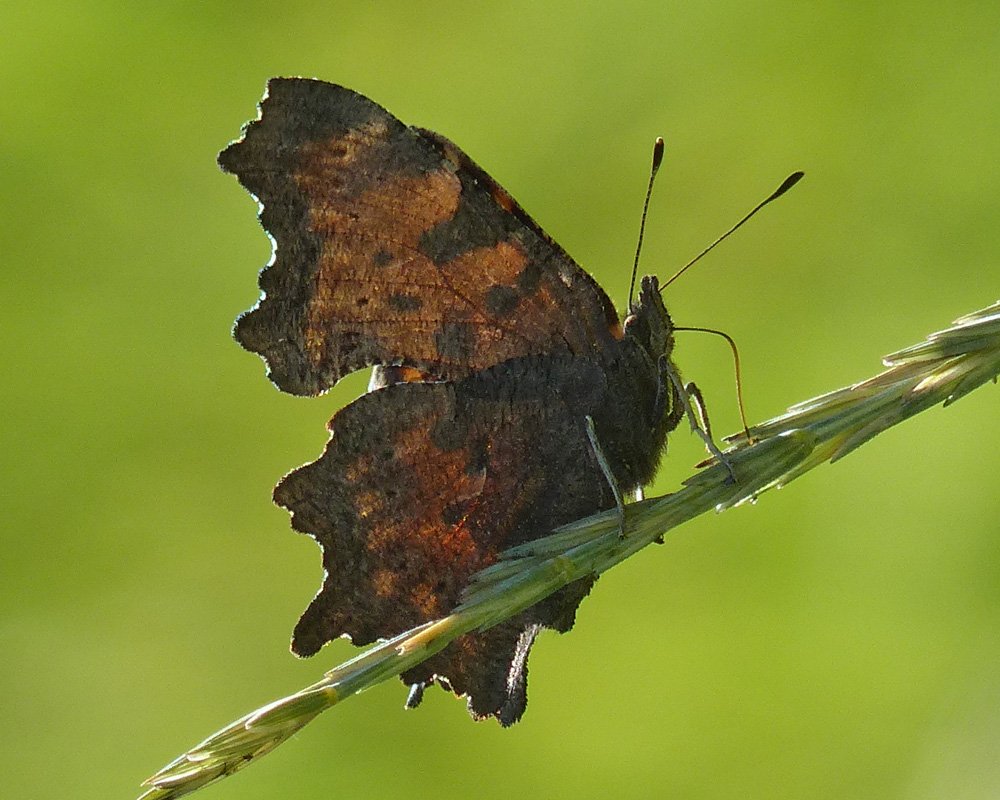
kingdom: Animalia
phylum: Arthropoda
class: Insecta
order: Lepidoptera
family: Nymphalidae
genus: Polygonia
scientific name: Polygonia faunus
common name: Green Comma
